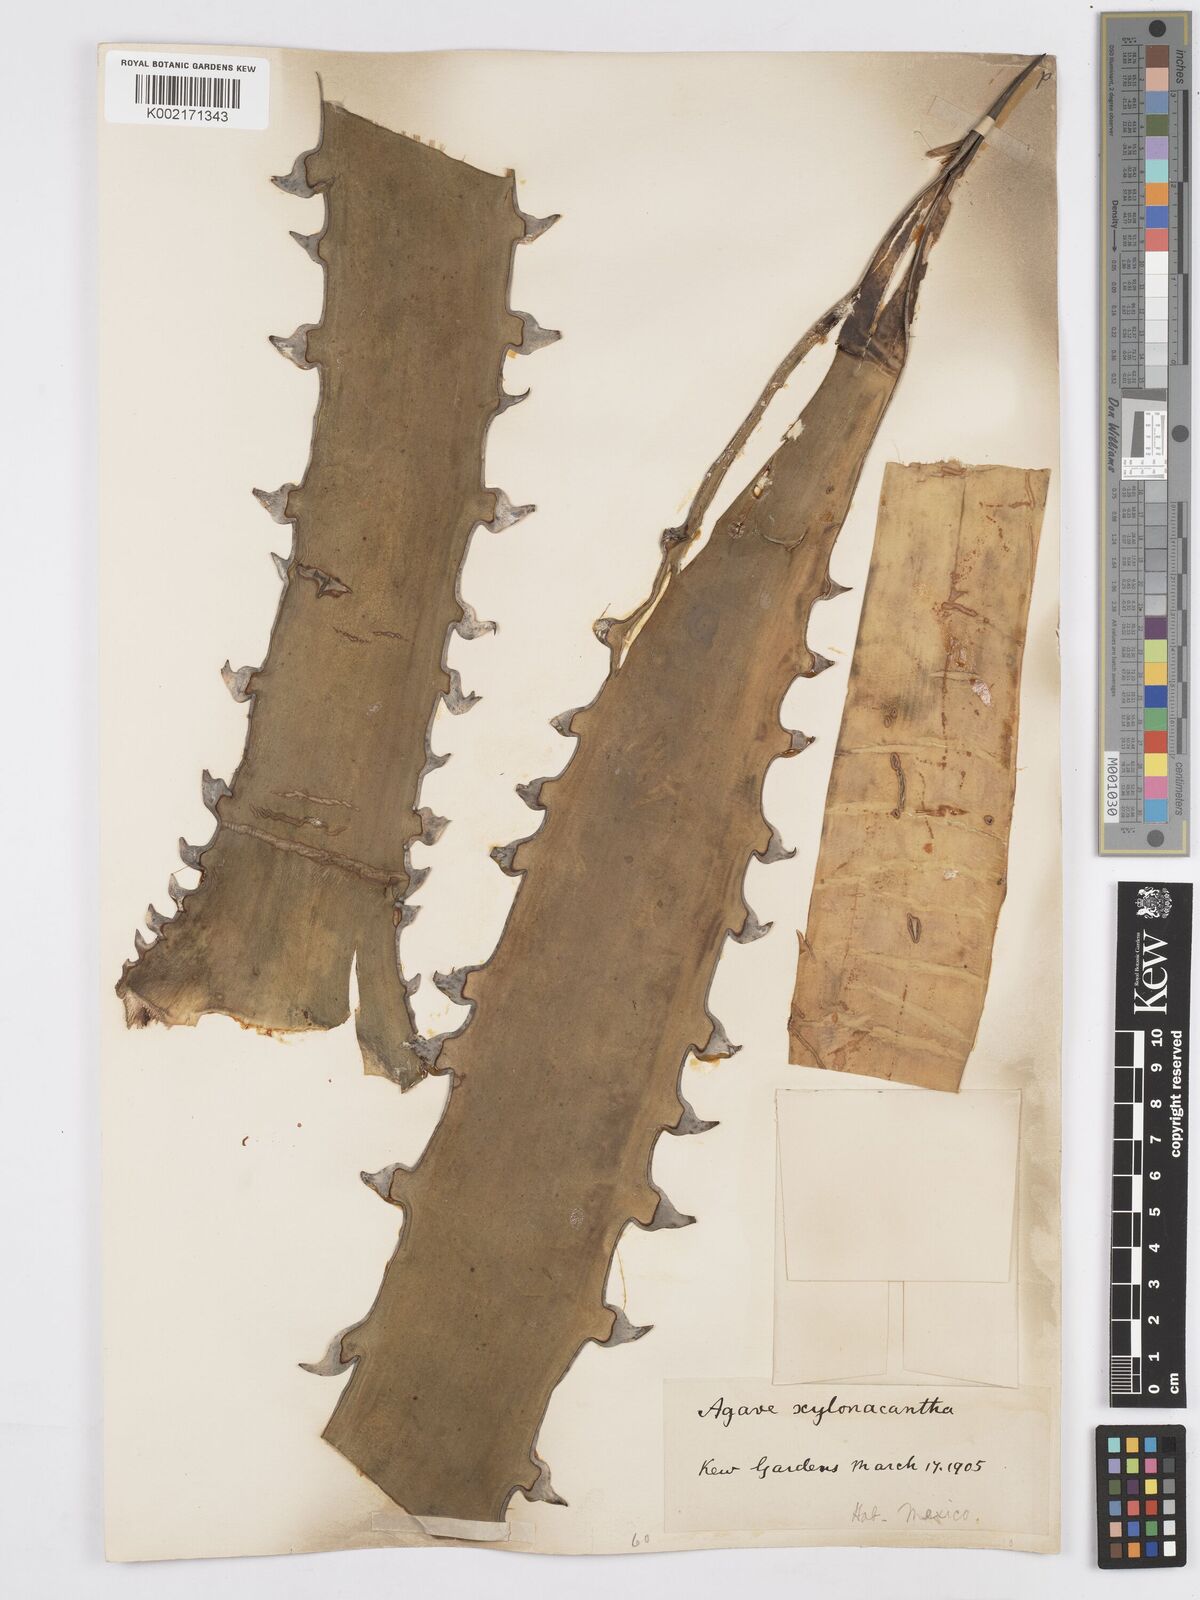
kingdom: Plantae
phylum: Tracheophyta
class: Liliopsida
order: Asparagales
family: Asparagaceae
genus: Agave
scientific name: Agave xylonacantha
